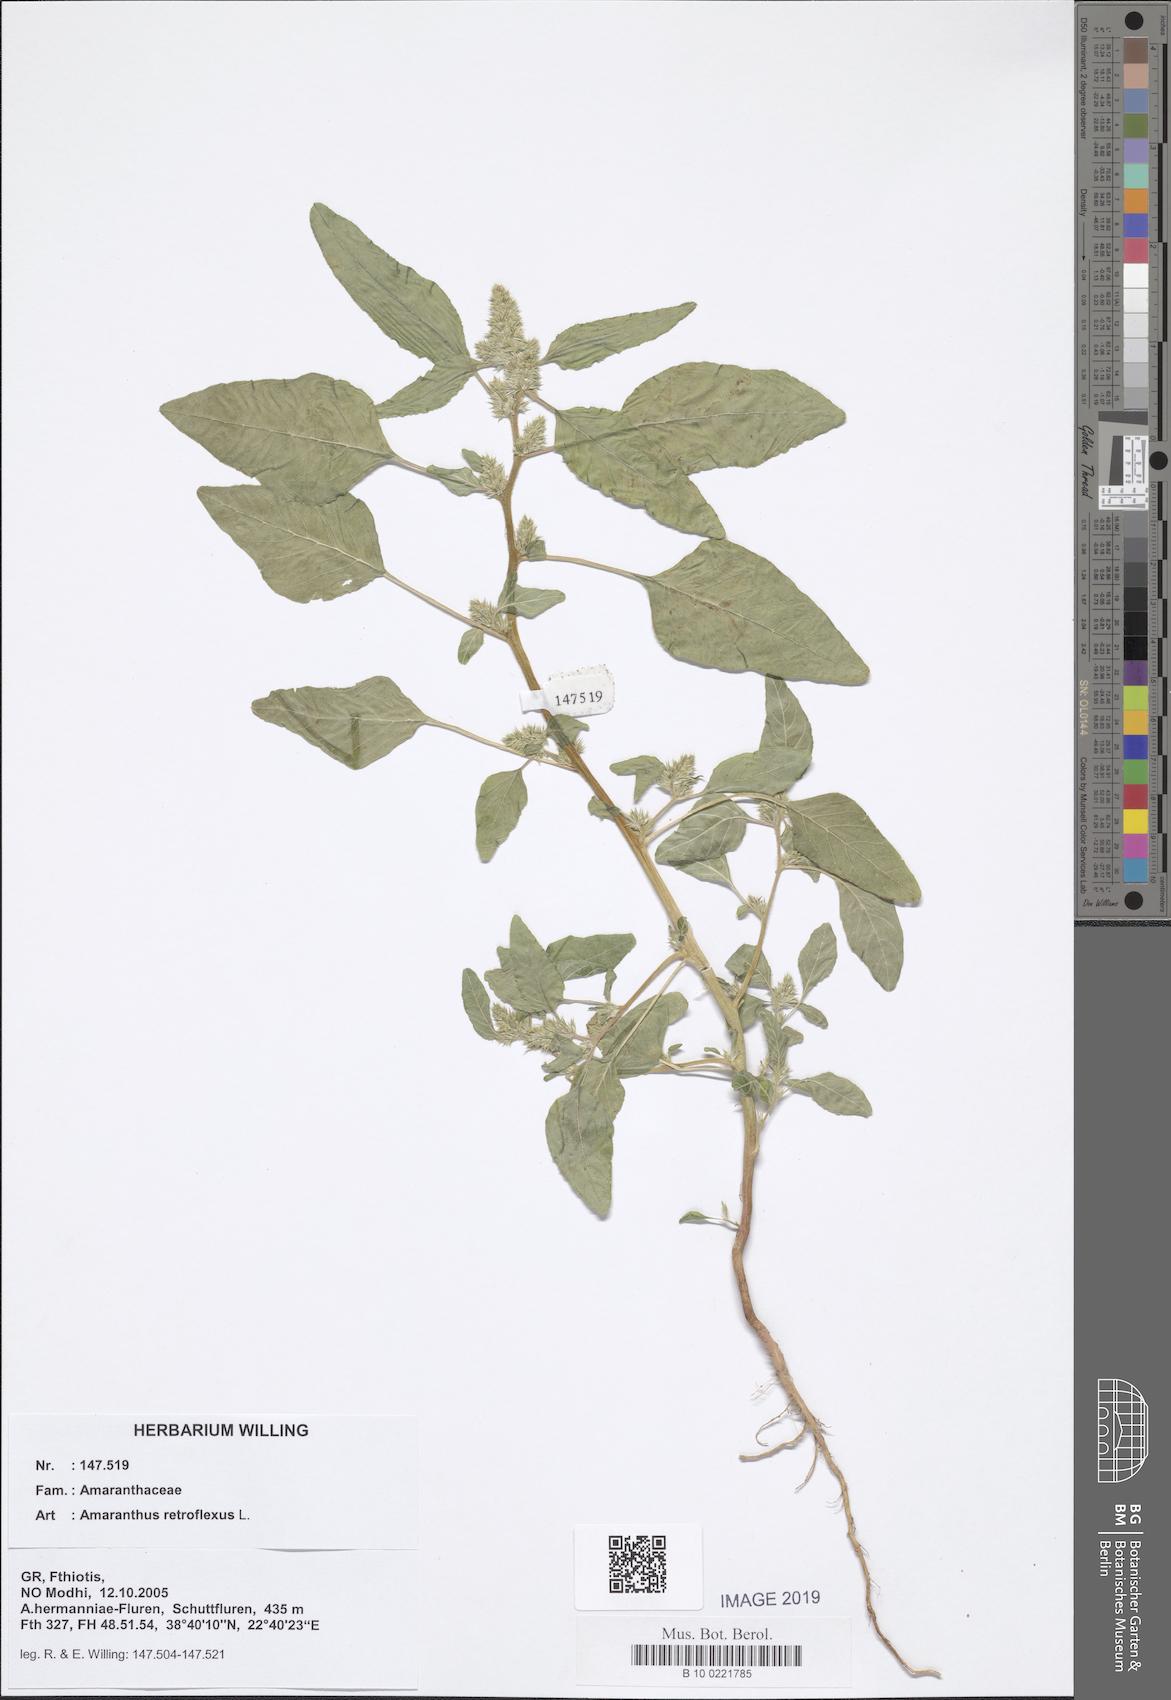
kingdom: Plantae
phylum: Tracheophyta
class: Magnoliopsida
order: Caryophyllales
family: Amaranthaceae
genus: Amaranthus
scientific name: Amaranthus retroflexus
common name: Redroot amaranth
